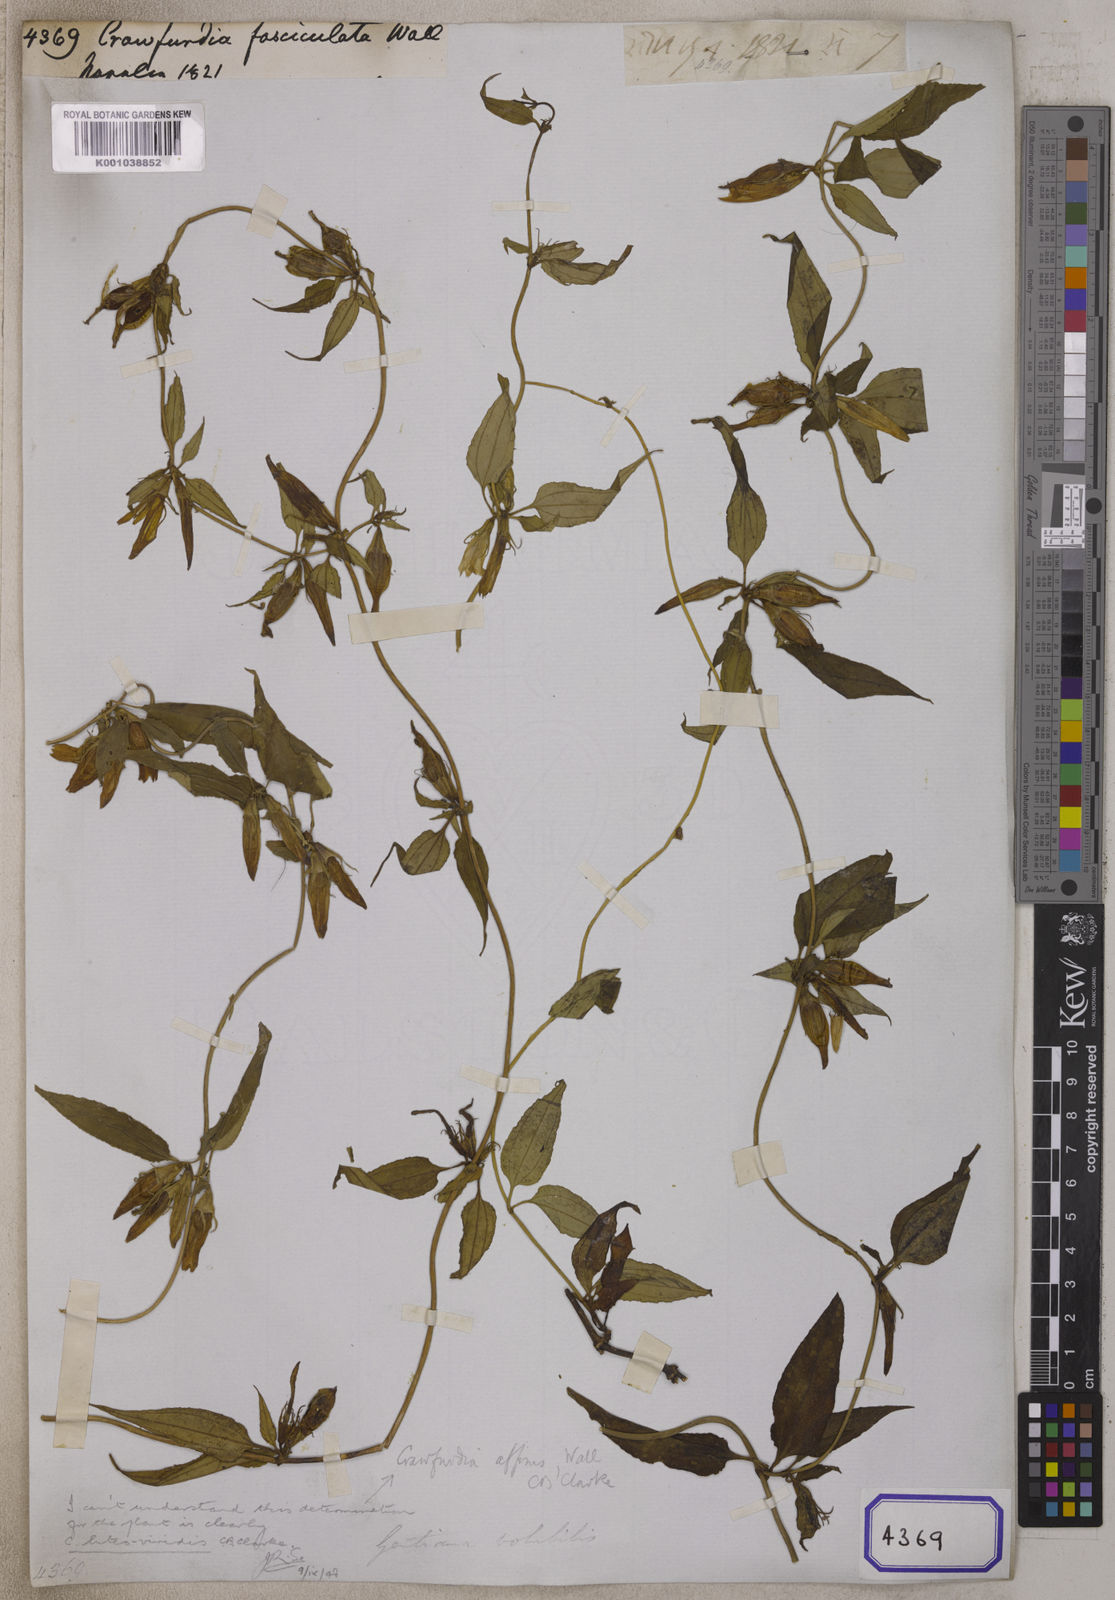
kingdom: Plantae
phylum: Tracheophyta
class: Magnoliopsida
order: Gentianales
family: Gentianaceae
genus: Tripterospermum
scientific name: Tripterospermum fasciculatum
